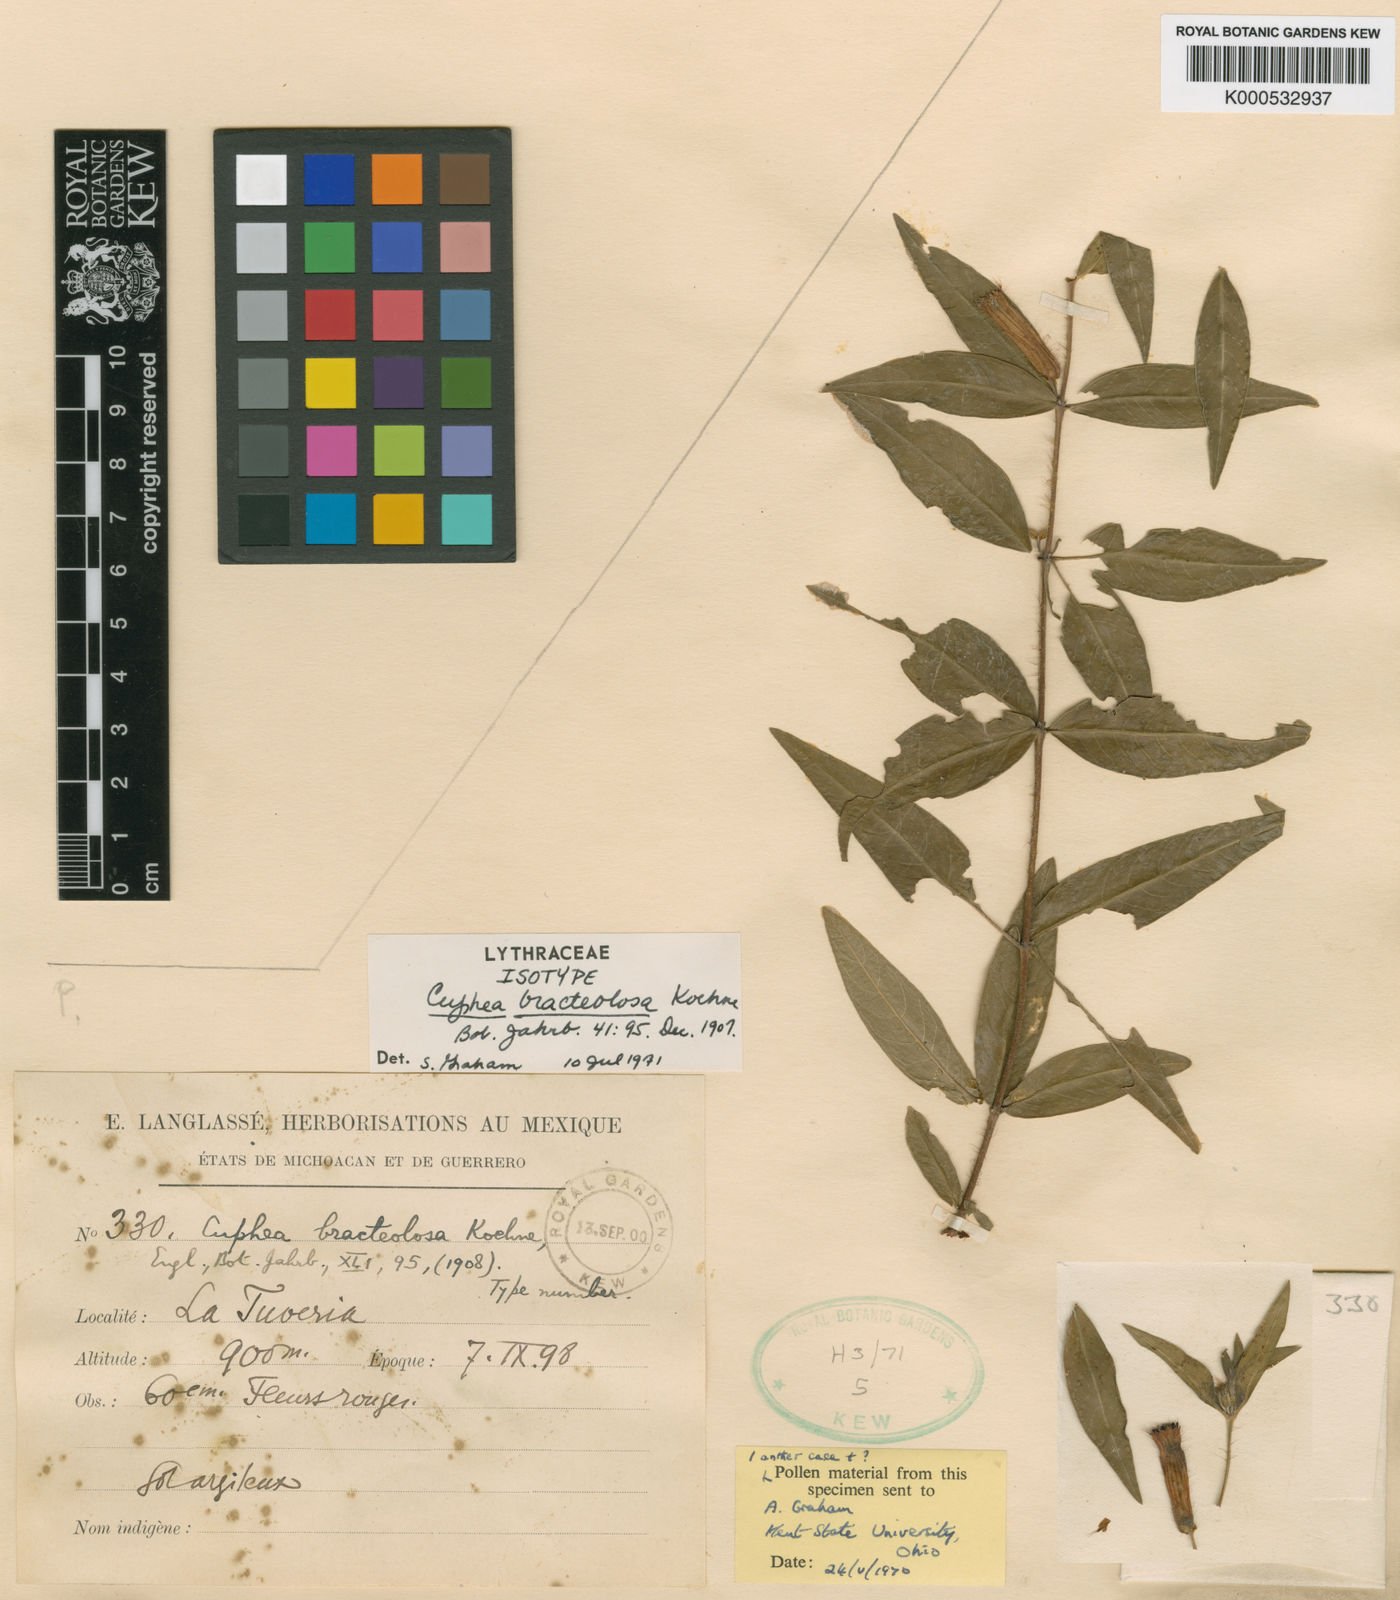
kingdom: Plantae
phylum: Tracheophyta
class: Magnoliopsida
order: Myrtales
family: Lythraceae
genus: Cuphea
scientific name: Cuphea bracteolosa
